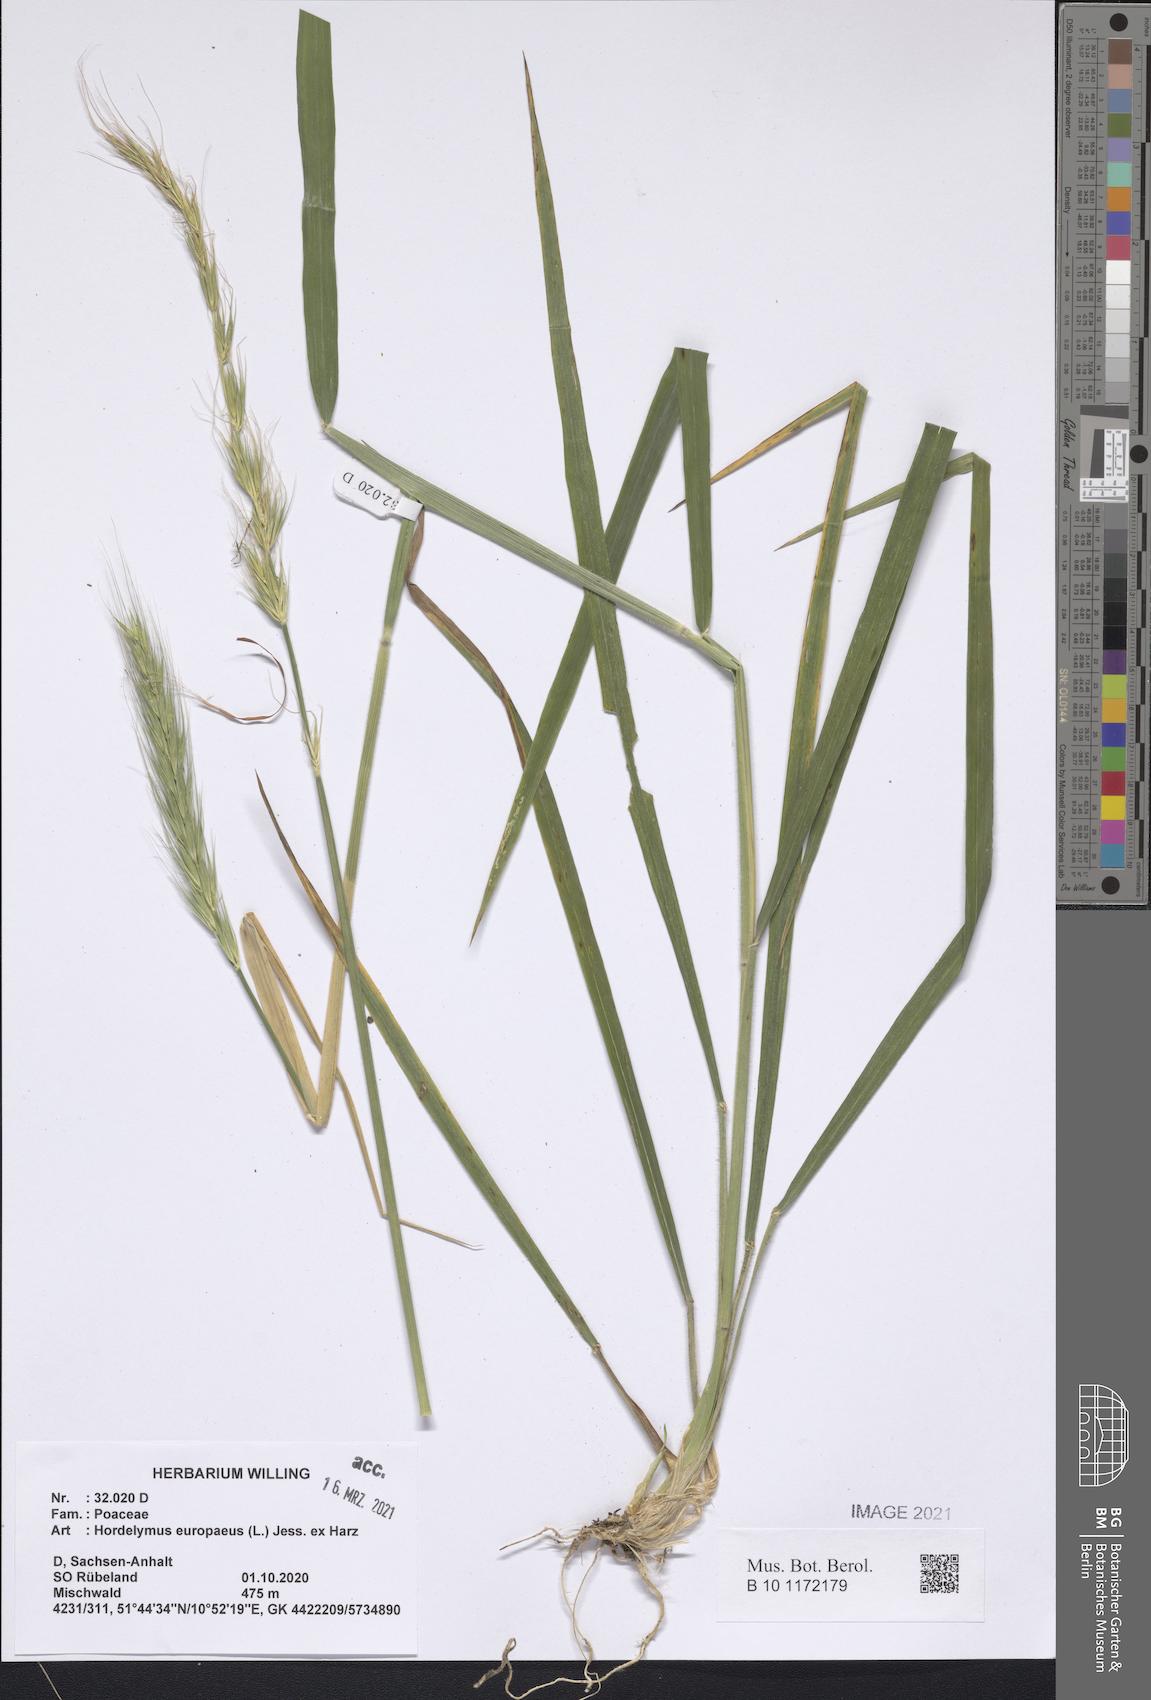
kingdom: Plantae
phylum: Tracheophyta
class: Liliopsida
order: Poales
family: Poaceae
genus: Hordelymus
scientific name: Hordelymus europaeus
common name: Wood-barley
